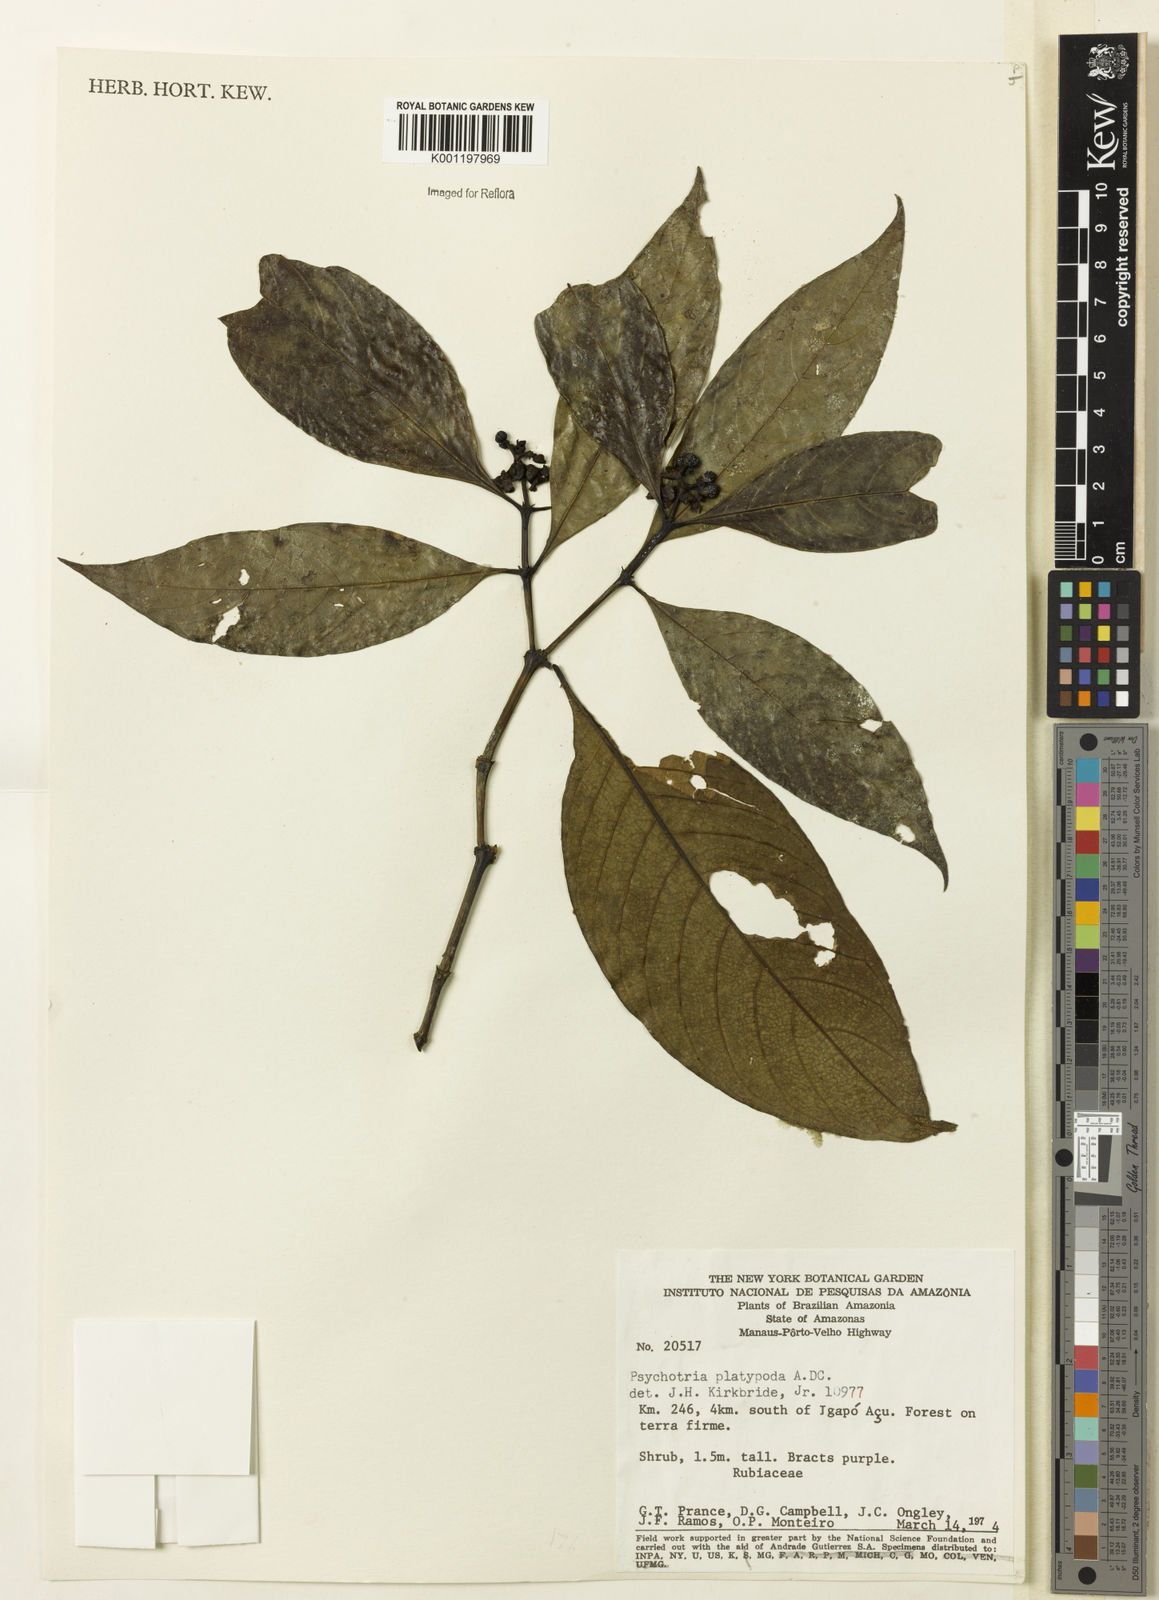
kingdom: Plantae
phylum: Tracheophyta
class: Magnoliopsida
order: Gentianales
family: Rubiaceae
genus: Palicourea
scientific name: Palicourea dichotoma
